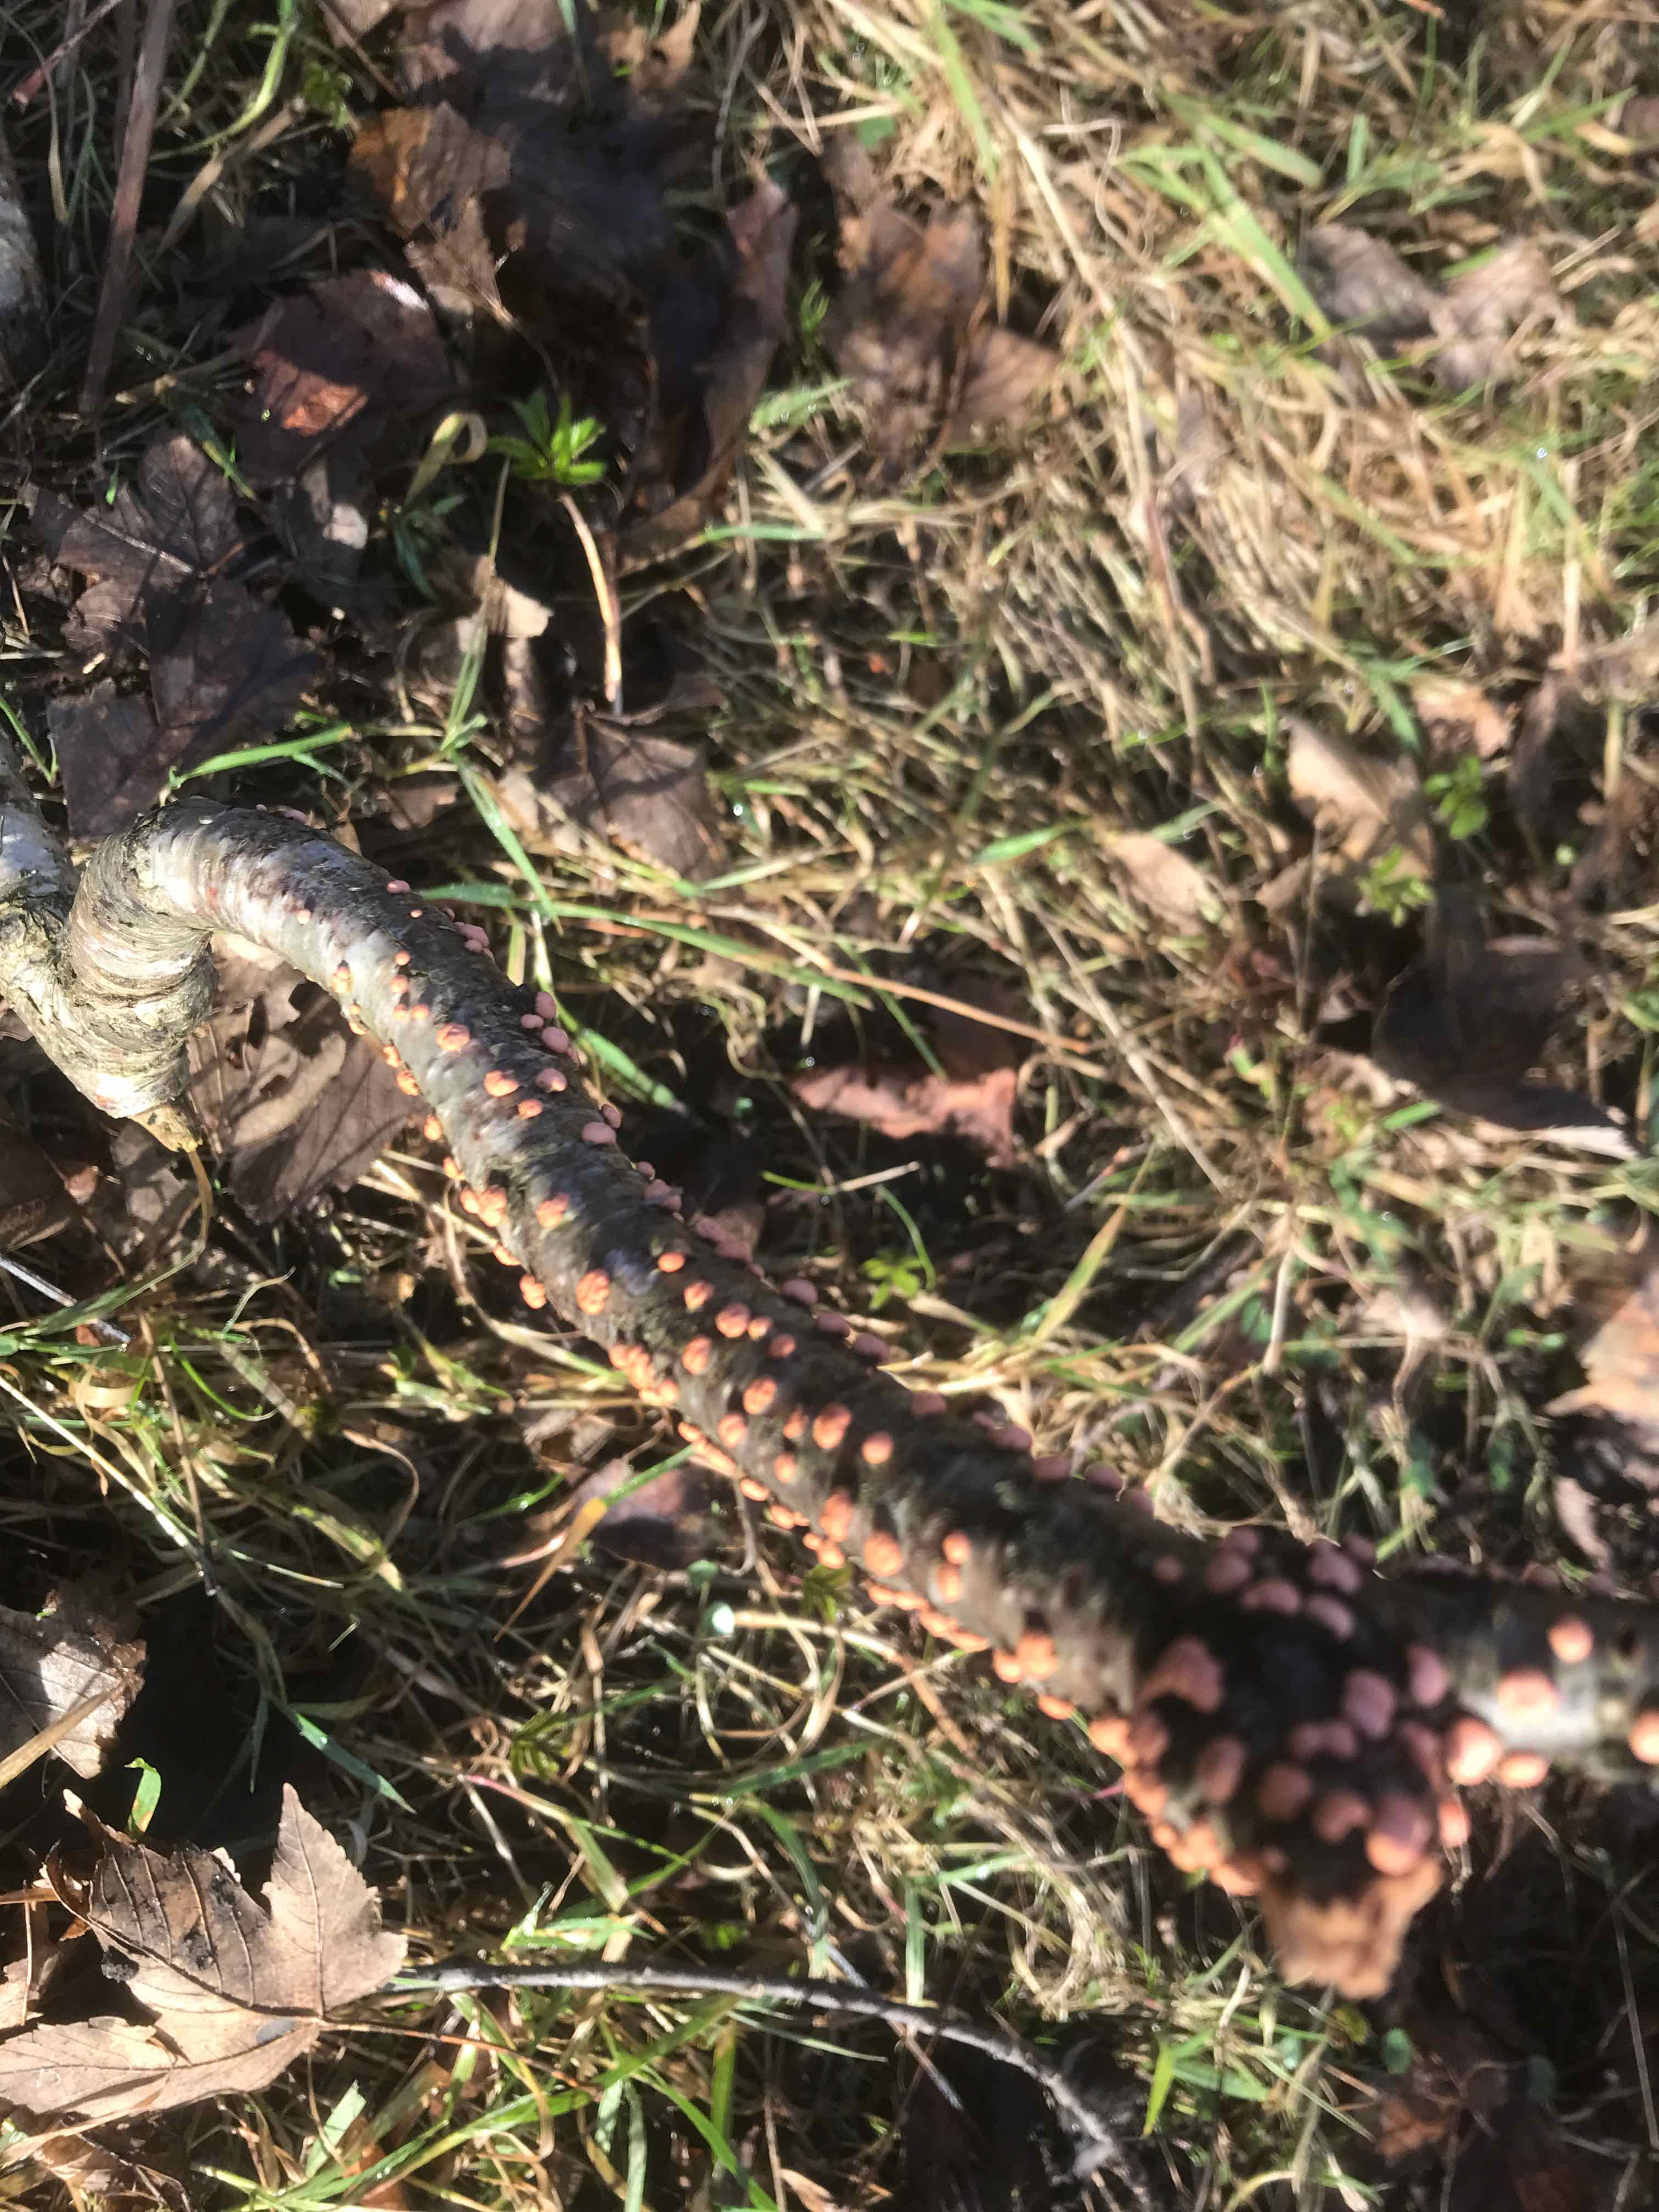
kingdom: Fungi
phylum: Ascomycota
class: Sordariomycetes
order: Hypocreales
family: Nectriaceae
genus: Nectria
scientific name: Nectria cinnabarina
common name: almindelig cinnobersvamp
